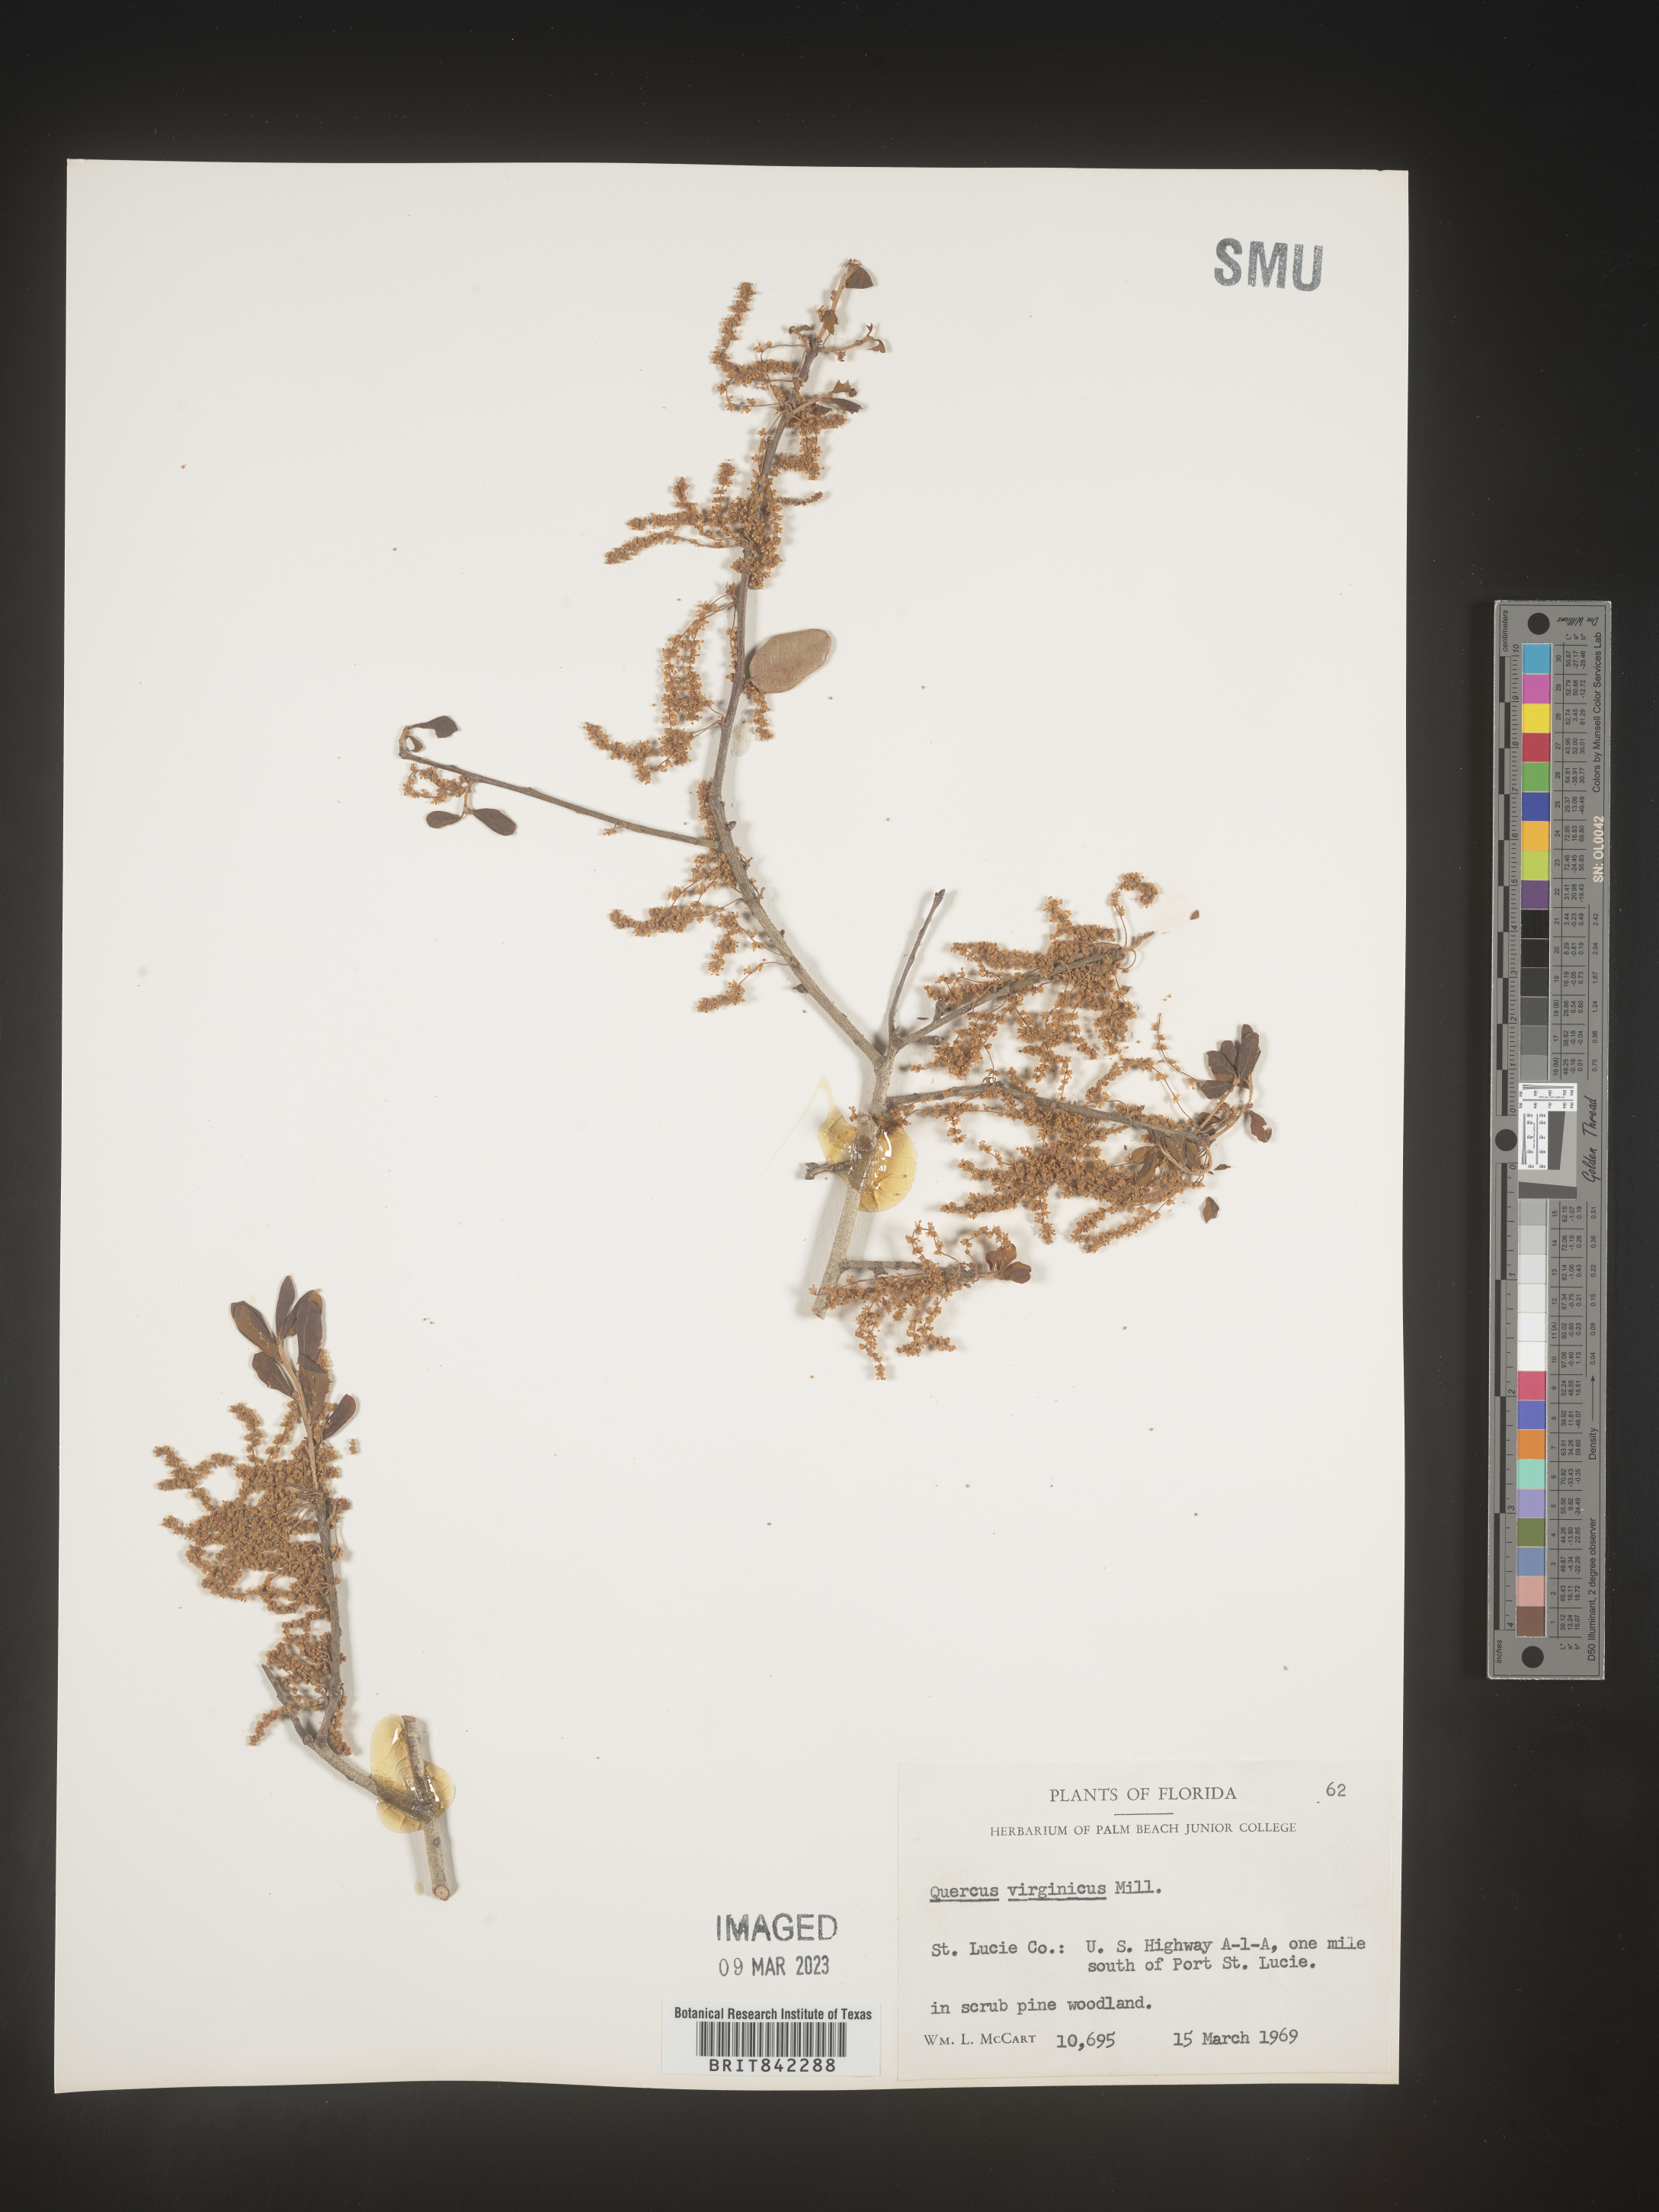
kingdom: Plantae
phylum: Tracheophyta
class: Magnoliopsida
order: Fagales
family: Fagaceae
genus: Quercus
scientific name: Quercus virginiana
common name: Southern live oak
